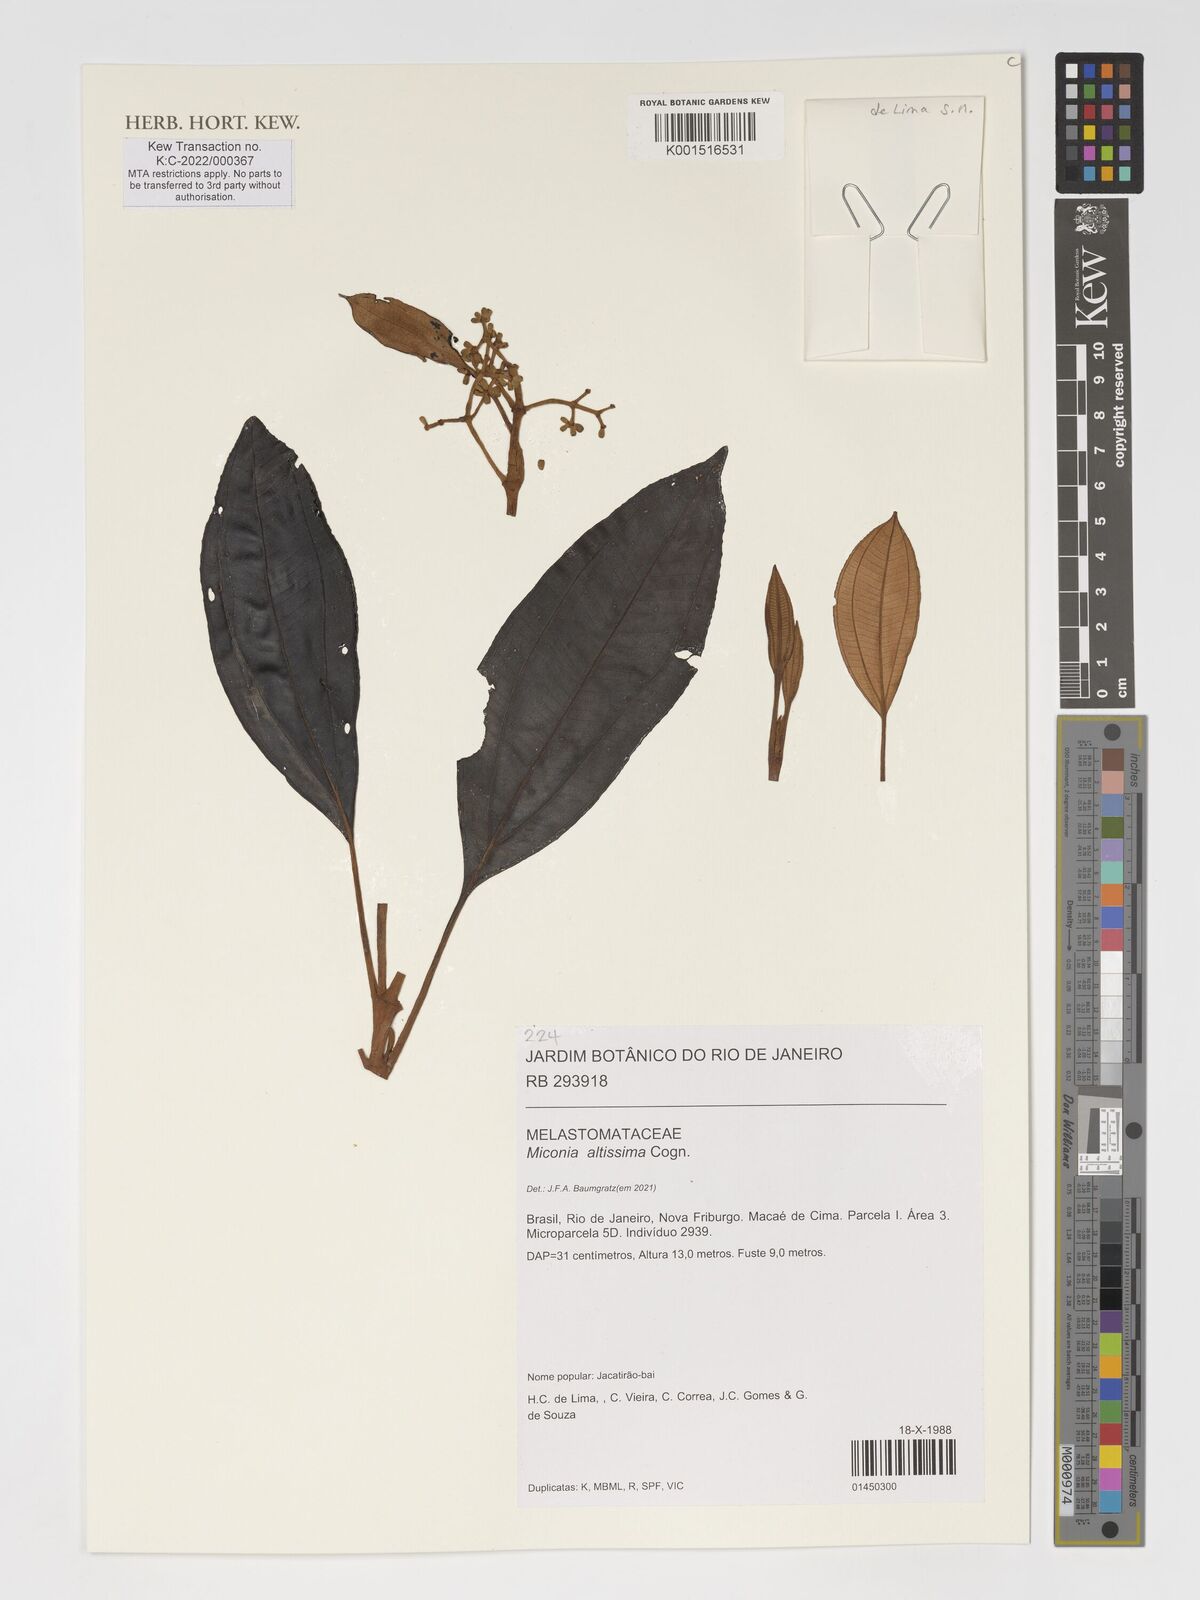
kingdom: Plantae
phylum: Tracheophyta
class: Magnoliopsida
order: Myrtales
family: Melastomataceae
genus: Miconia
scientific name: Miconia formosa
